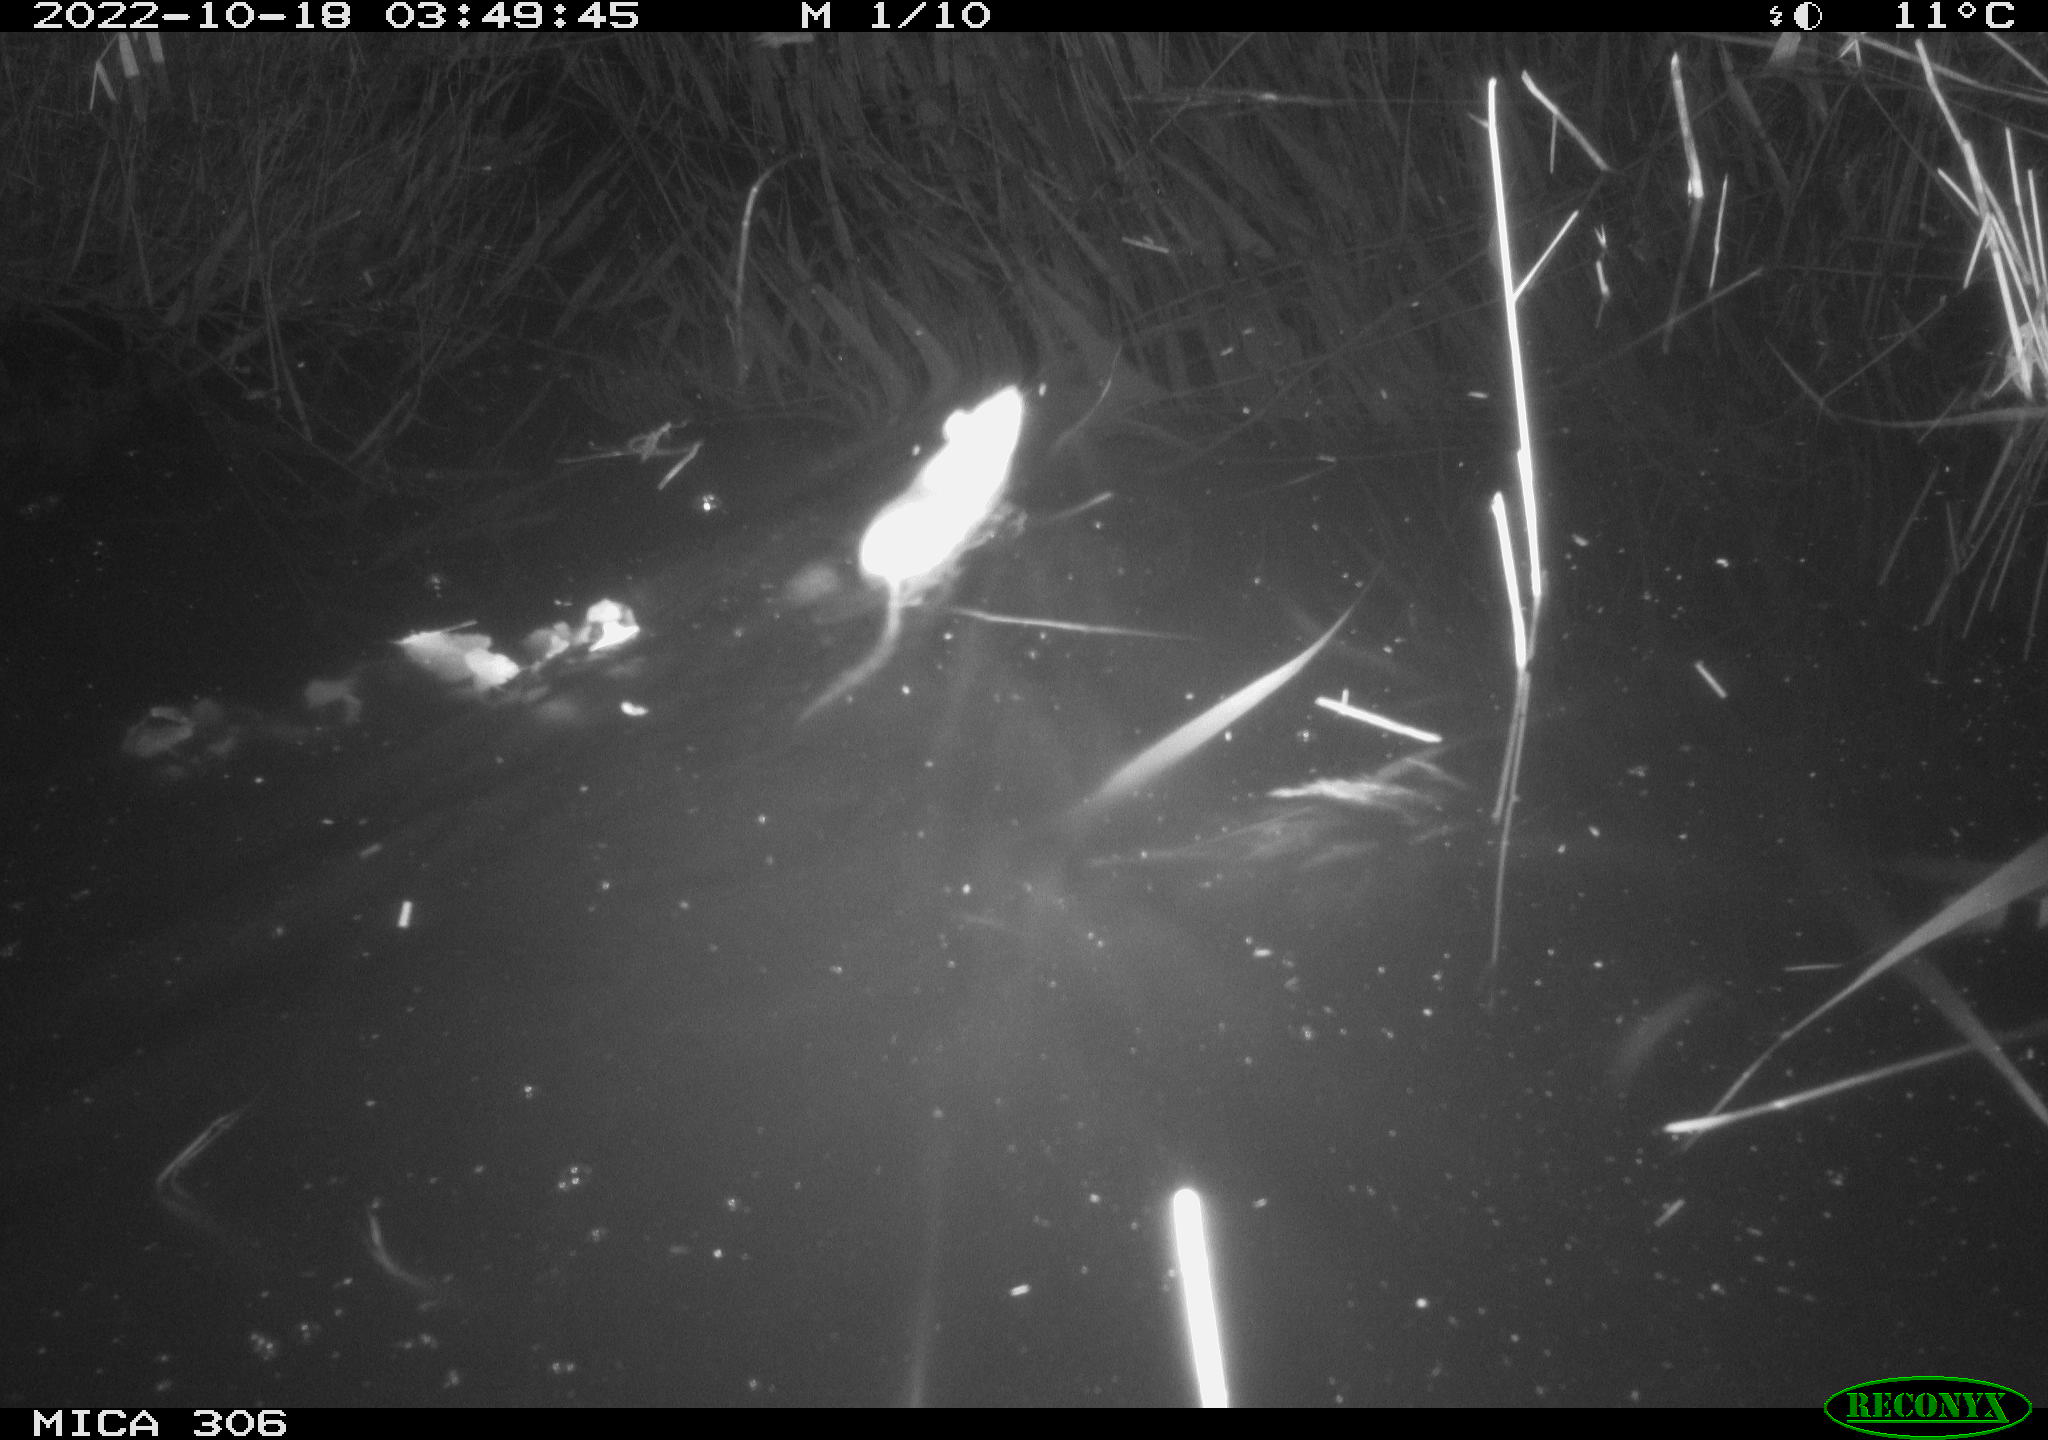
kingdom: Animalia
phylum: Chordata
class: Mammalia
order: Rodentia
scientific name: Rodentia
